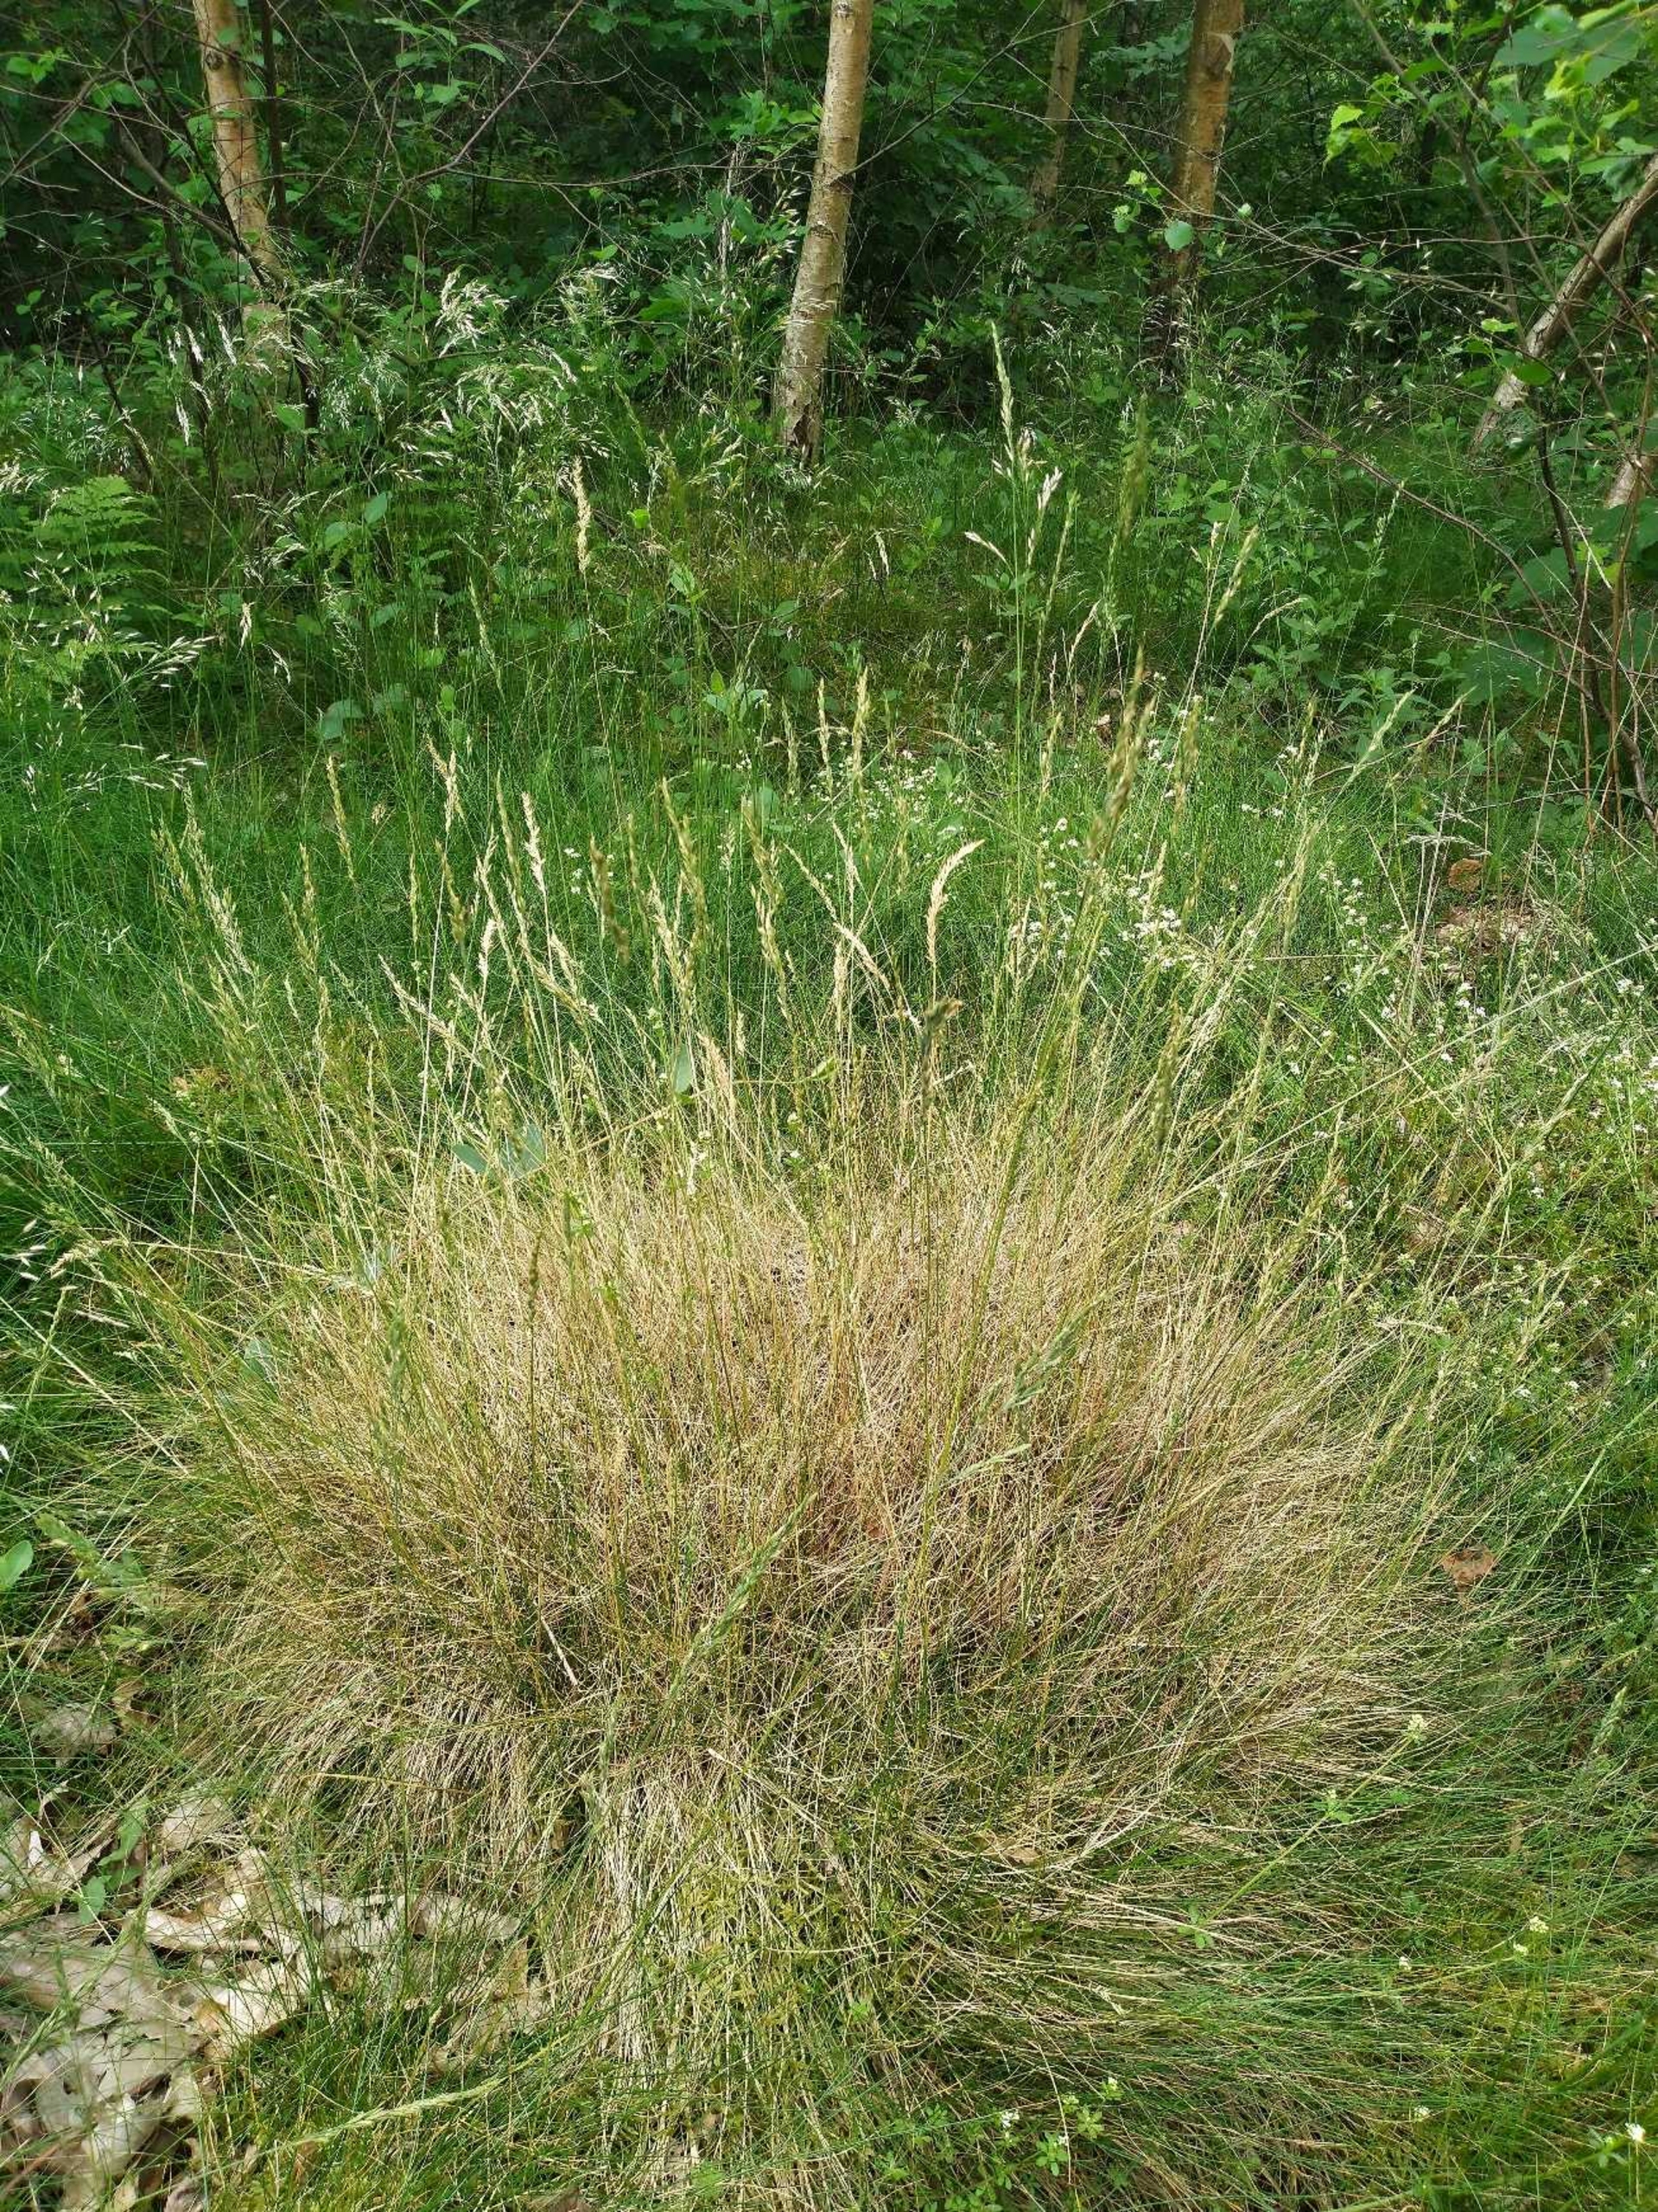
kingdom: Plantae
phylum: Tracheophyta
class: Liliopsida
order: Poales
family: Poaceae
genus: Festuca
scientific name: Festuca ovina
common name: Fåre-svingel
